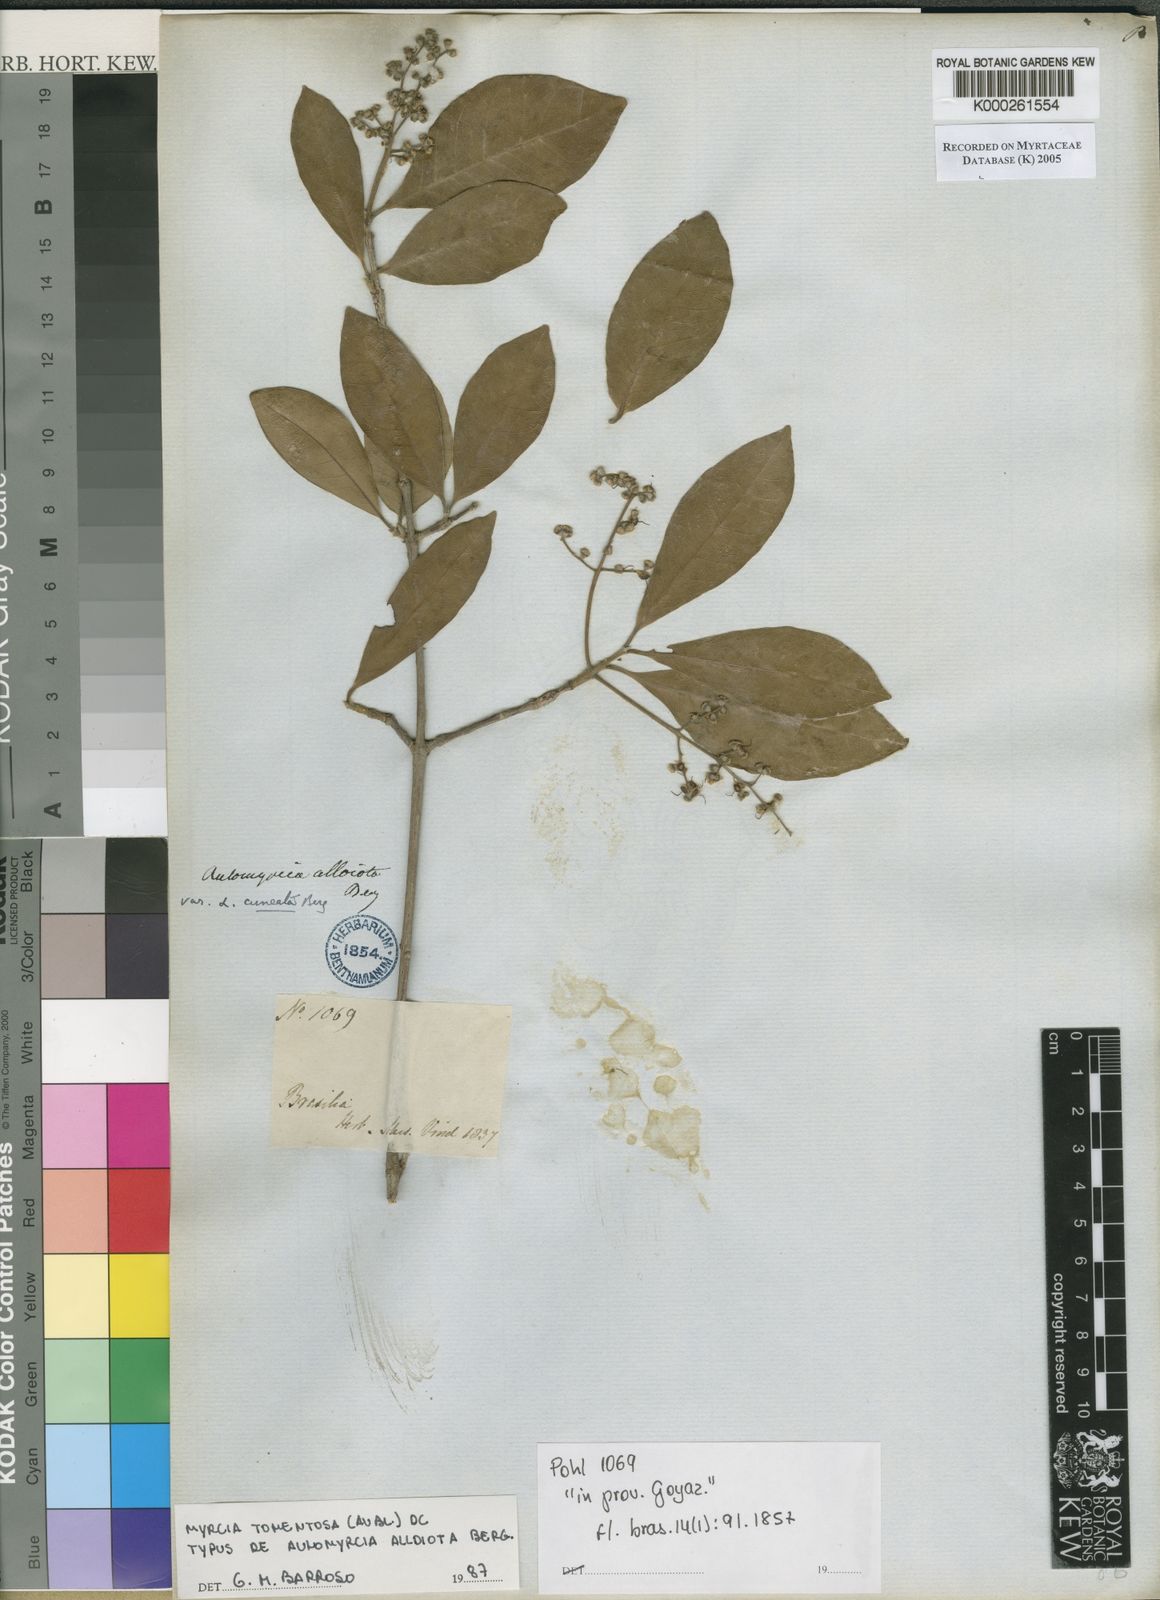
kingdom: Plantae
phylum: Tracheophyta
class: Magnoliopsida
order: Myrtales
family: Myrtaceae
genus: Myrcia
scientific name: Myrcia tomentosa
